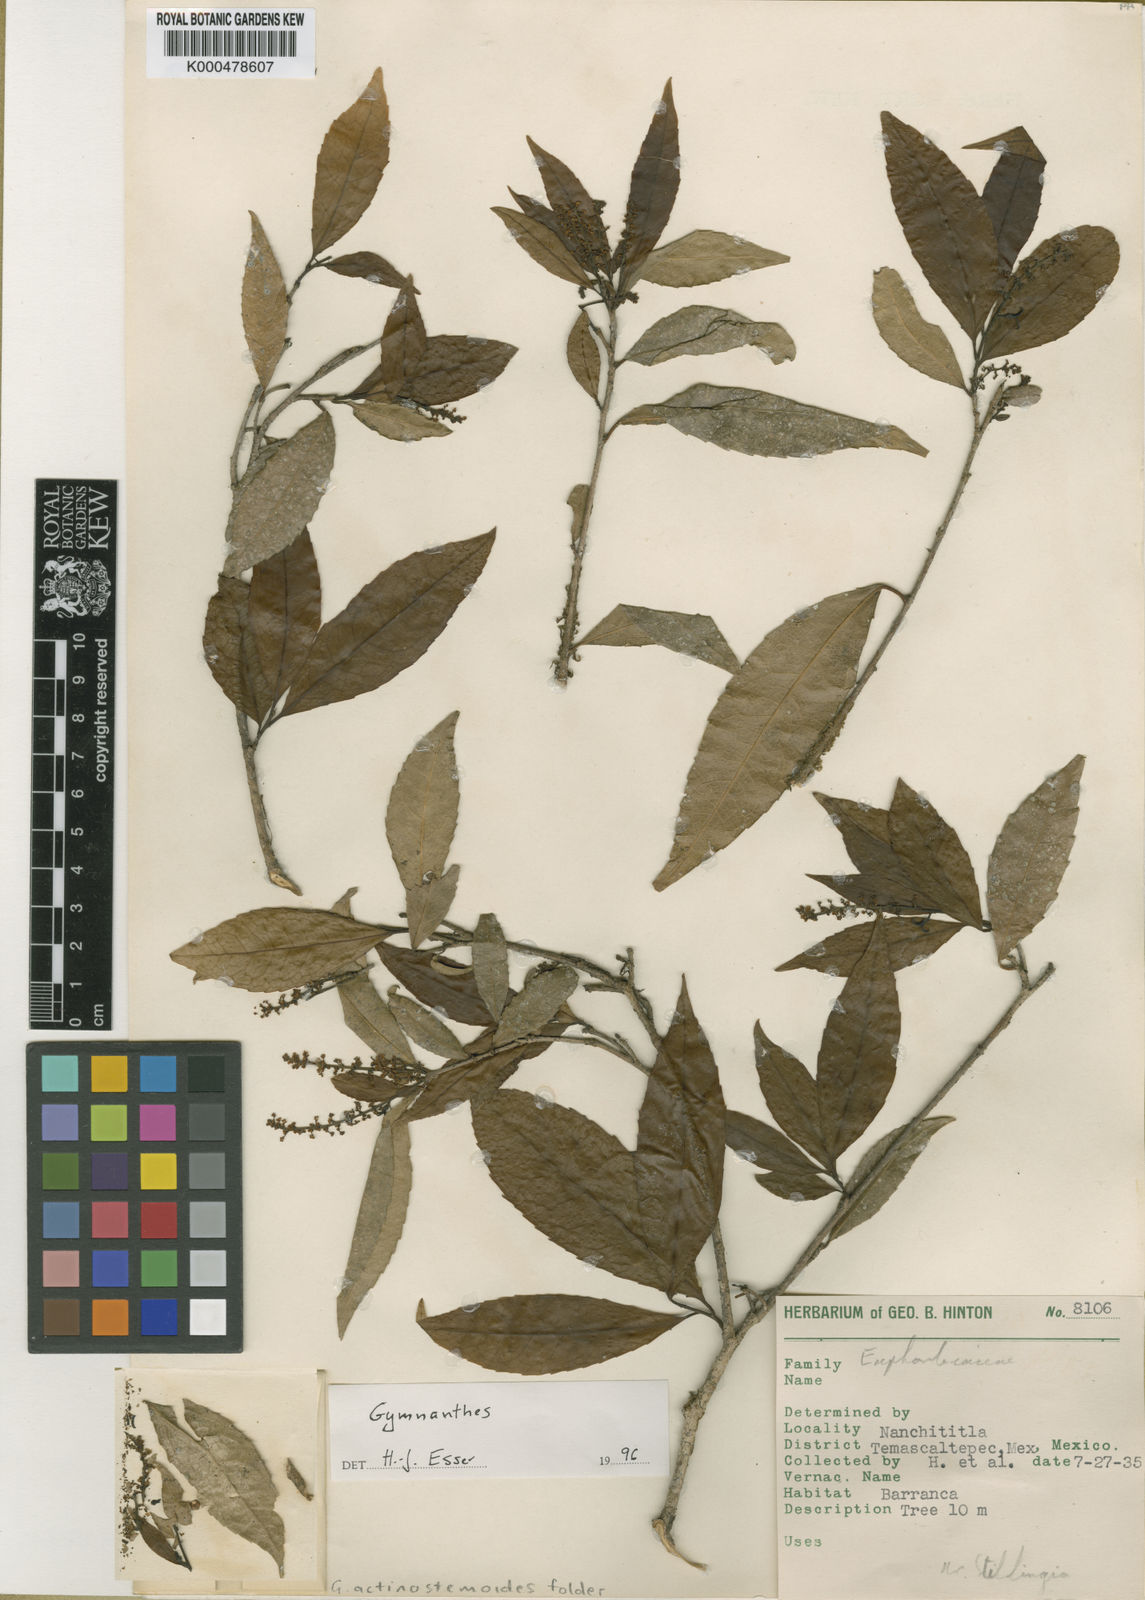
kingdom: Plantae
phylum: Tracheophyta
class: Magnoliopsida
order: Malpighiales
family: Euphorbiaceae
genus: Gymnanthes
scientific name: Gymnanthes
